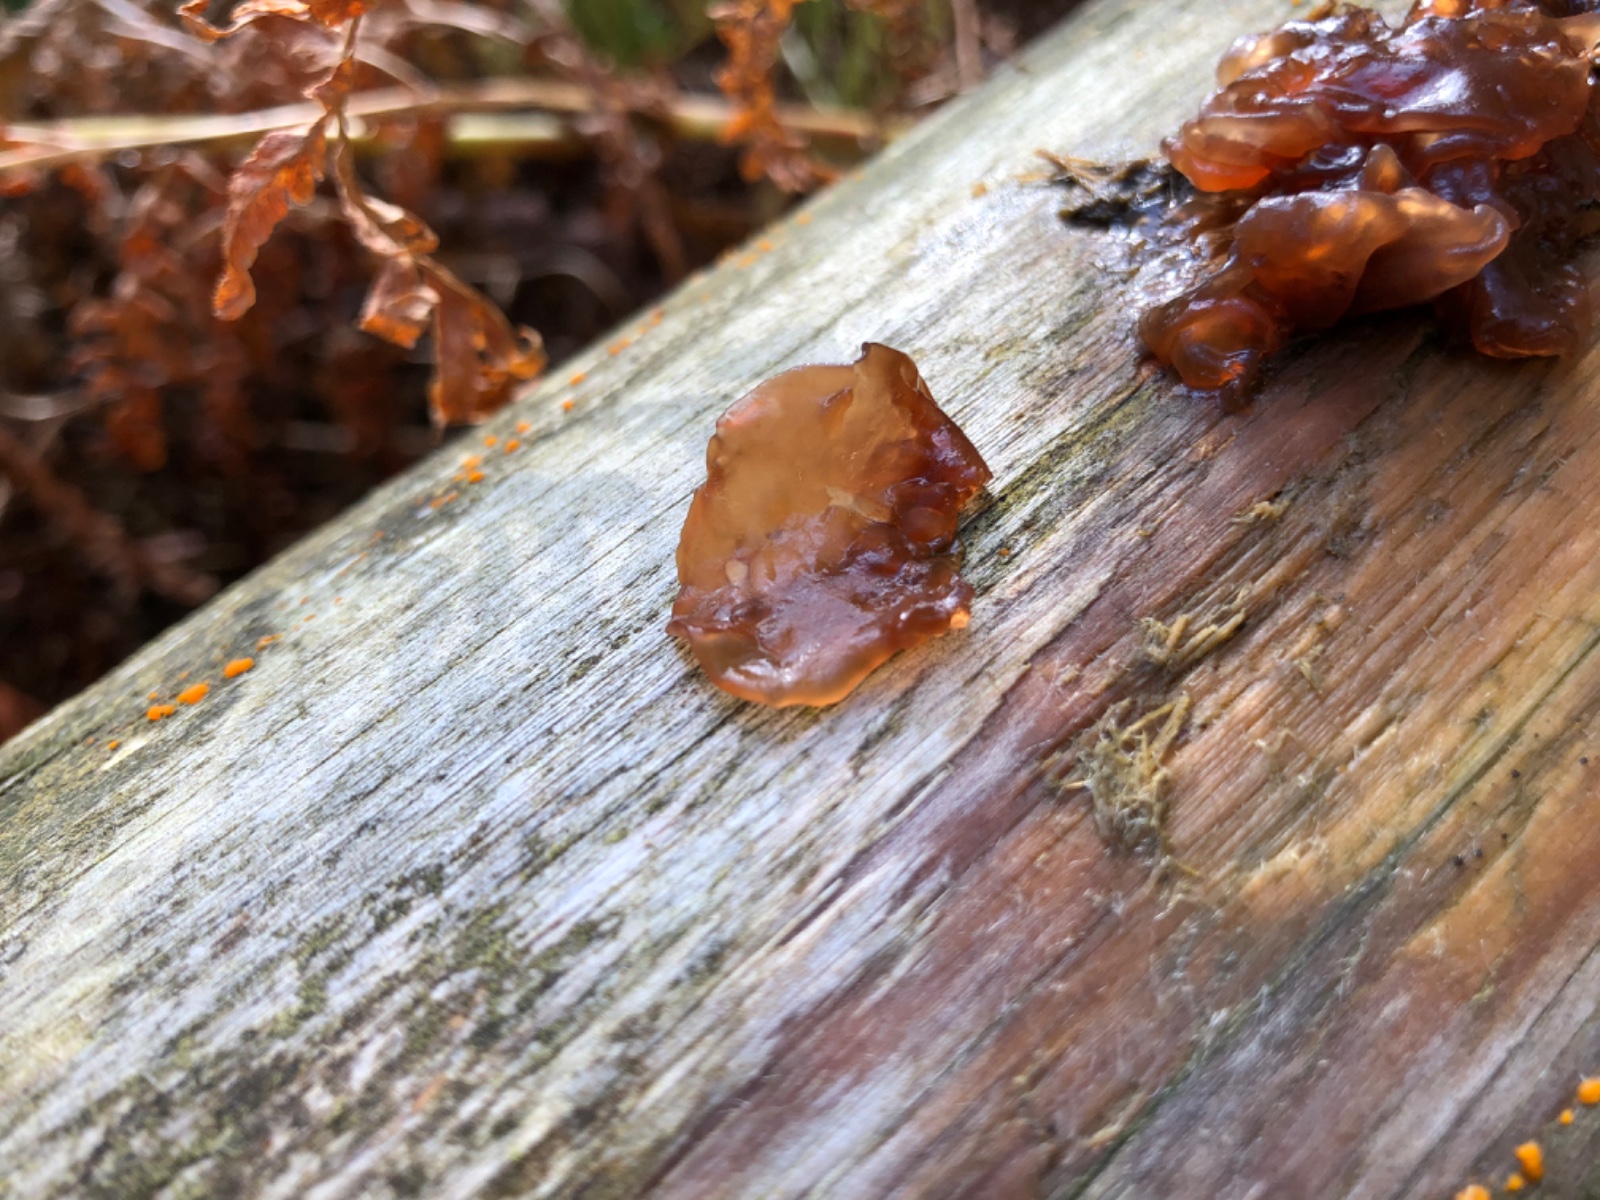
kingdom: Fungi
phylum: Basidiomycota
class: Tremellomycetes
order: Tremellales
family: Tremellaceae
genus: Phaeotremella
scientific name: Phaeotremella foliacea
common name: brun bævresvamp
